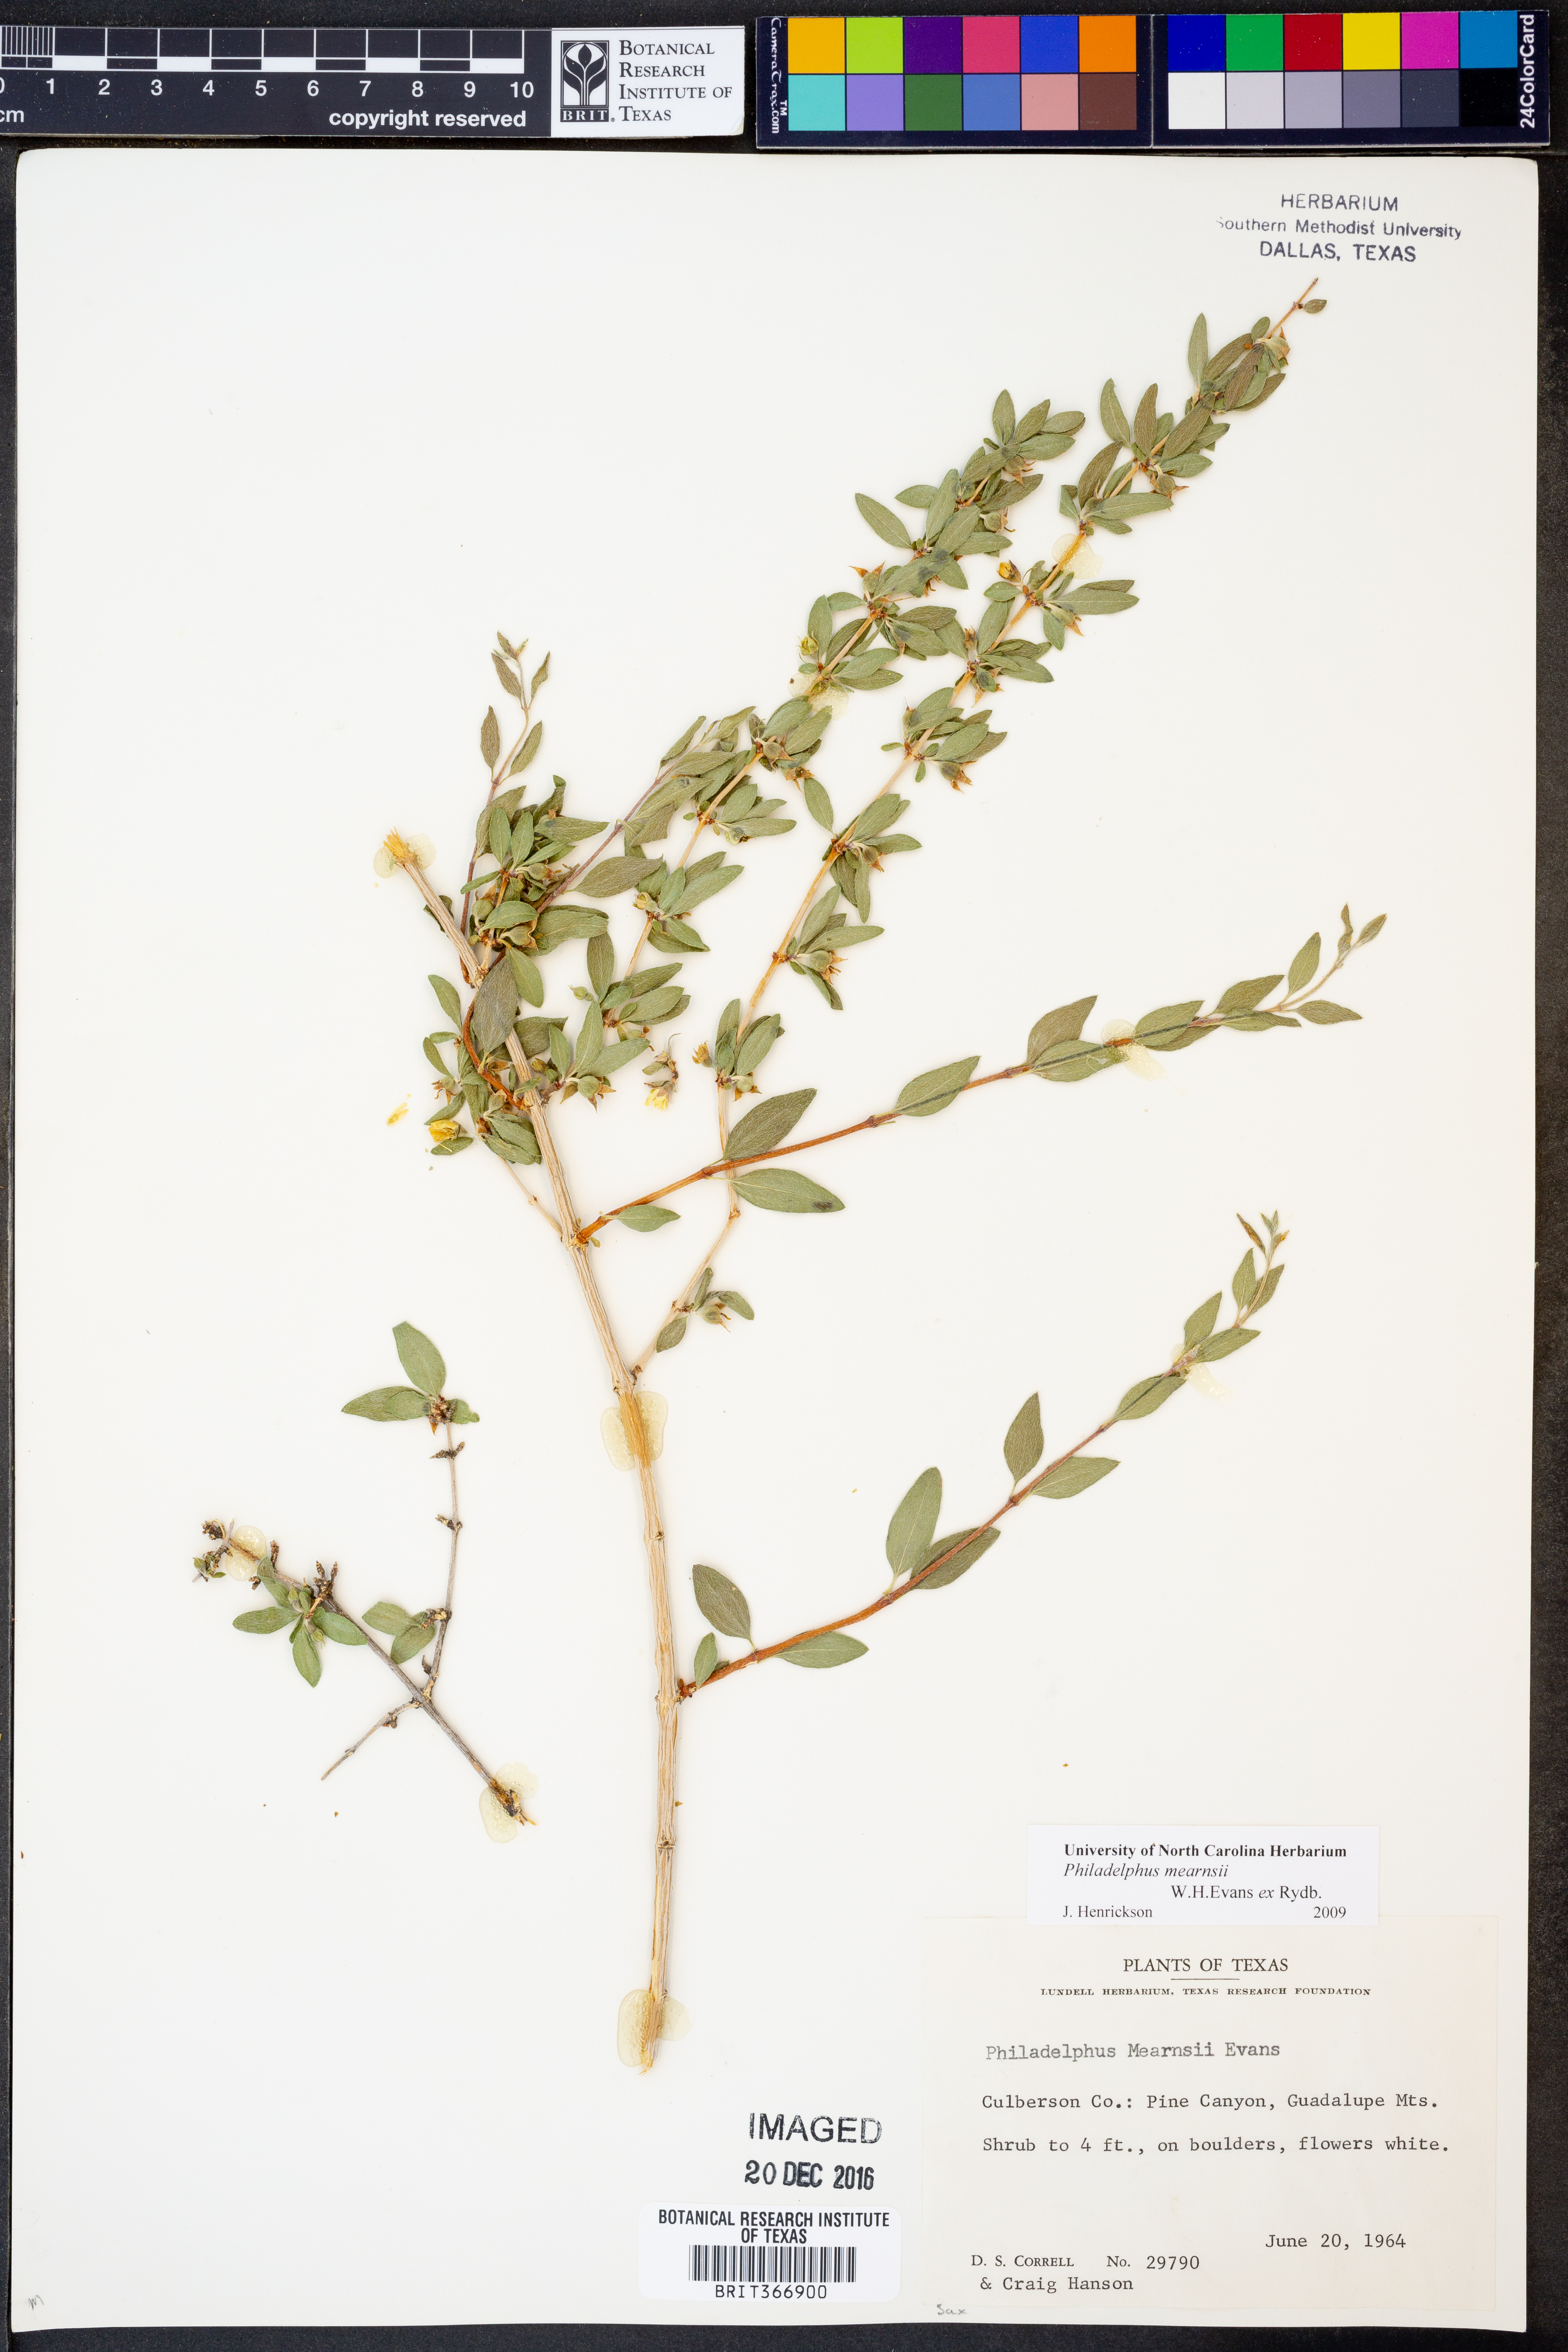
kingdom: Plantae
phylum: Tracheophyta
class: Magnoliopsida
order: Cornales
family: Hydrangeaceae
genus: Philadelphus
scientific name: Philadelphus mearnsii
